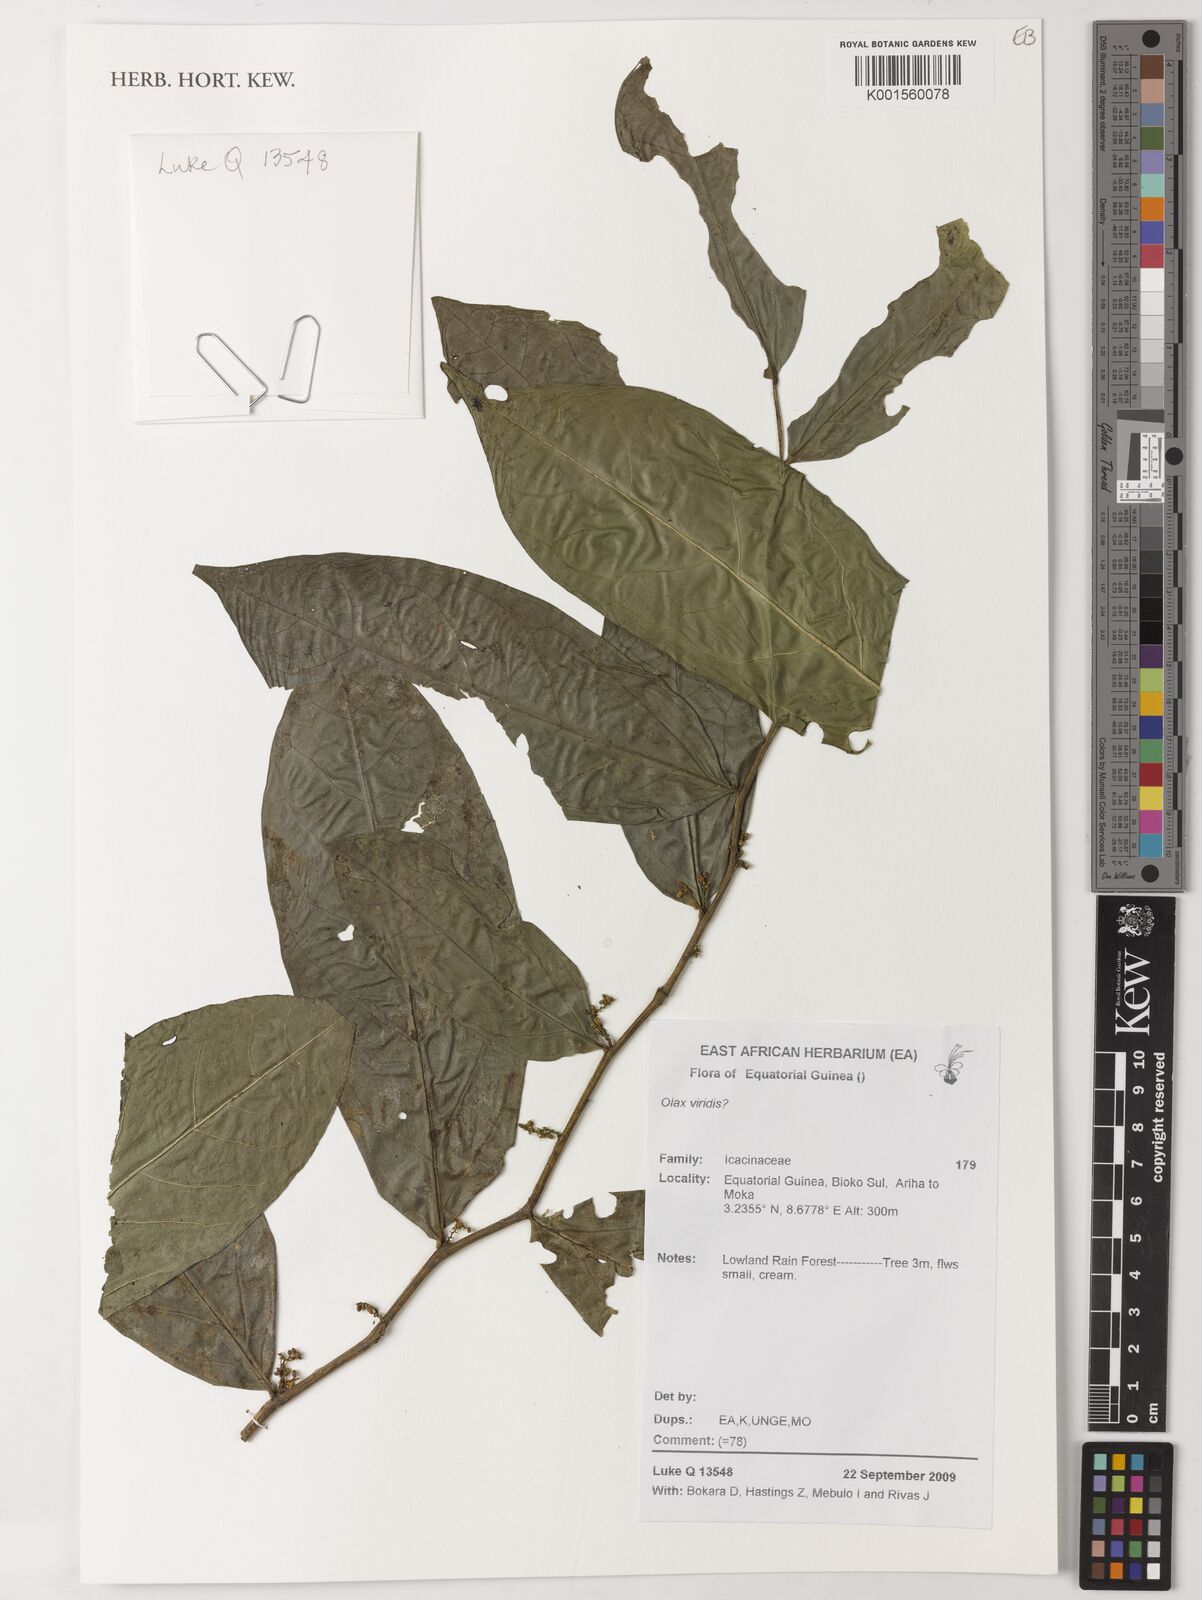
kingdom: Plantae
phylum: Tracheophyta
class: Magnoliopsida
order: Santalales
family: Olacaceae
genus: Olax
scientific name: Olax gambecola
